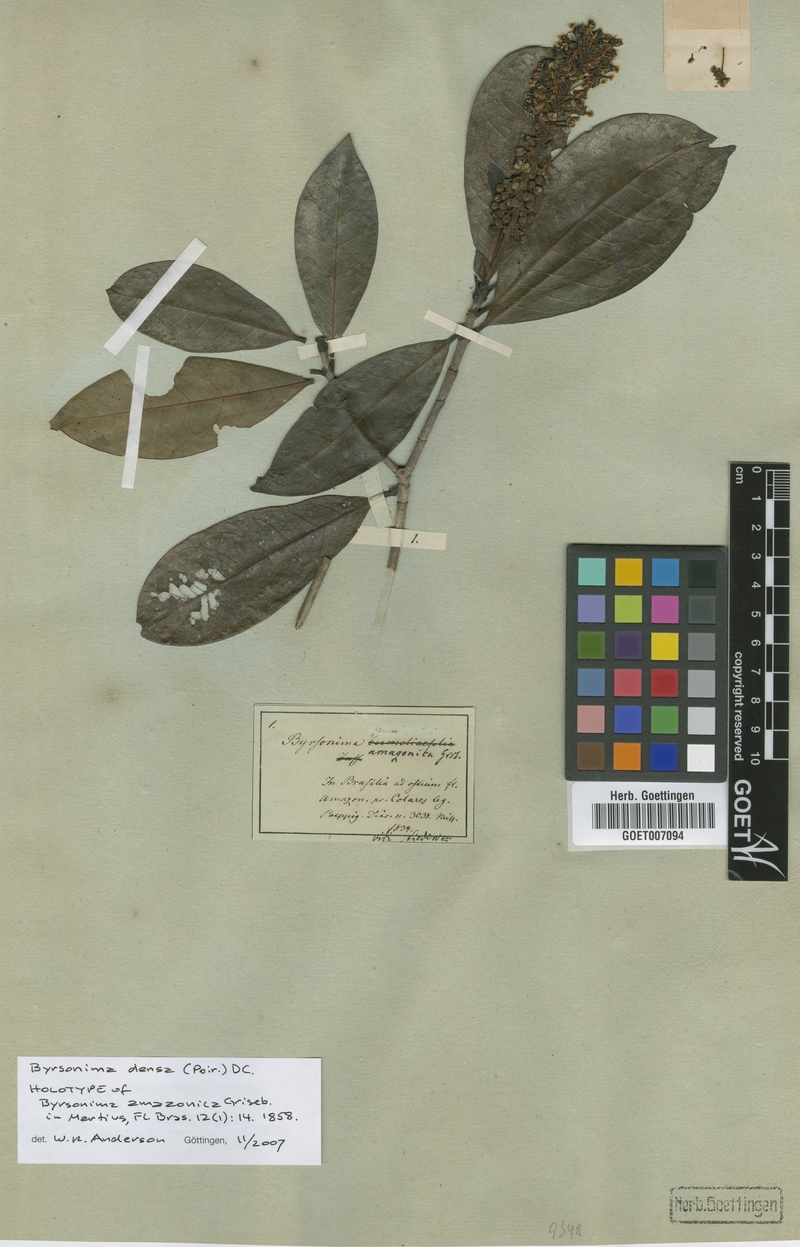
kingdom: Plantae
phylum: Tracheophyta
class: Magnoliopsida
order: Malpighiales
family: Malpighiaceae
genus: Byrsonima
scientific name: Byrsonima densa
